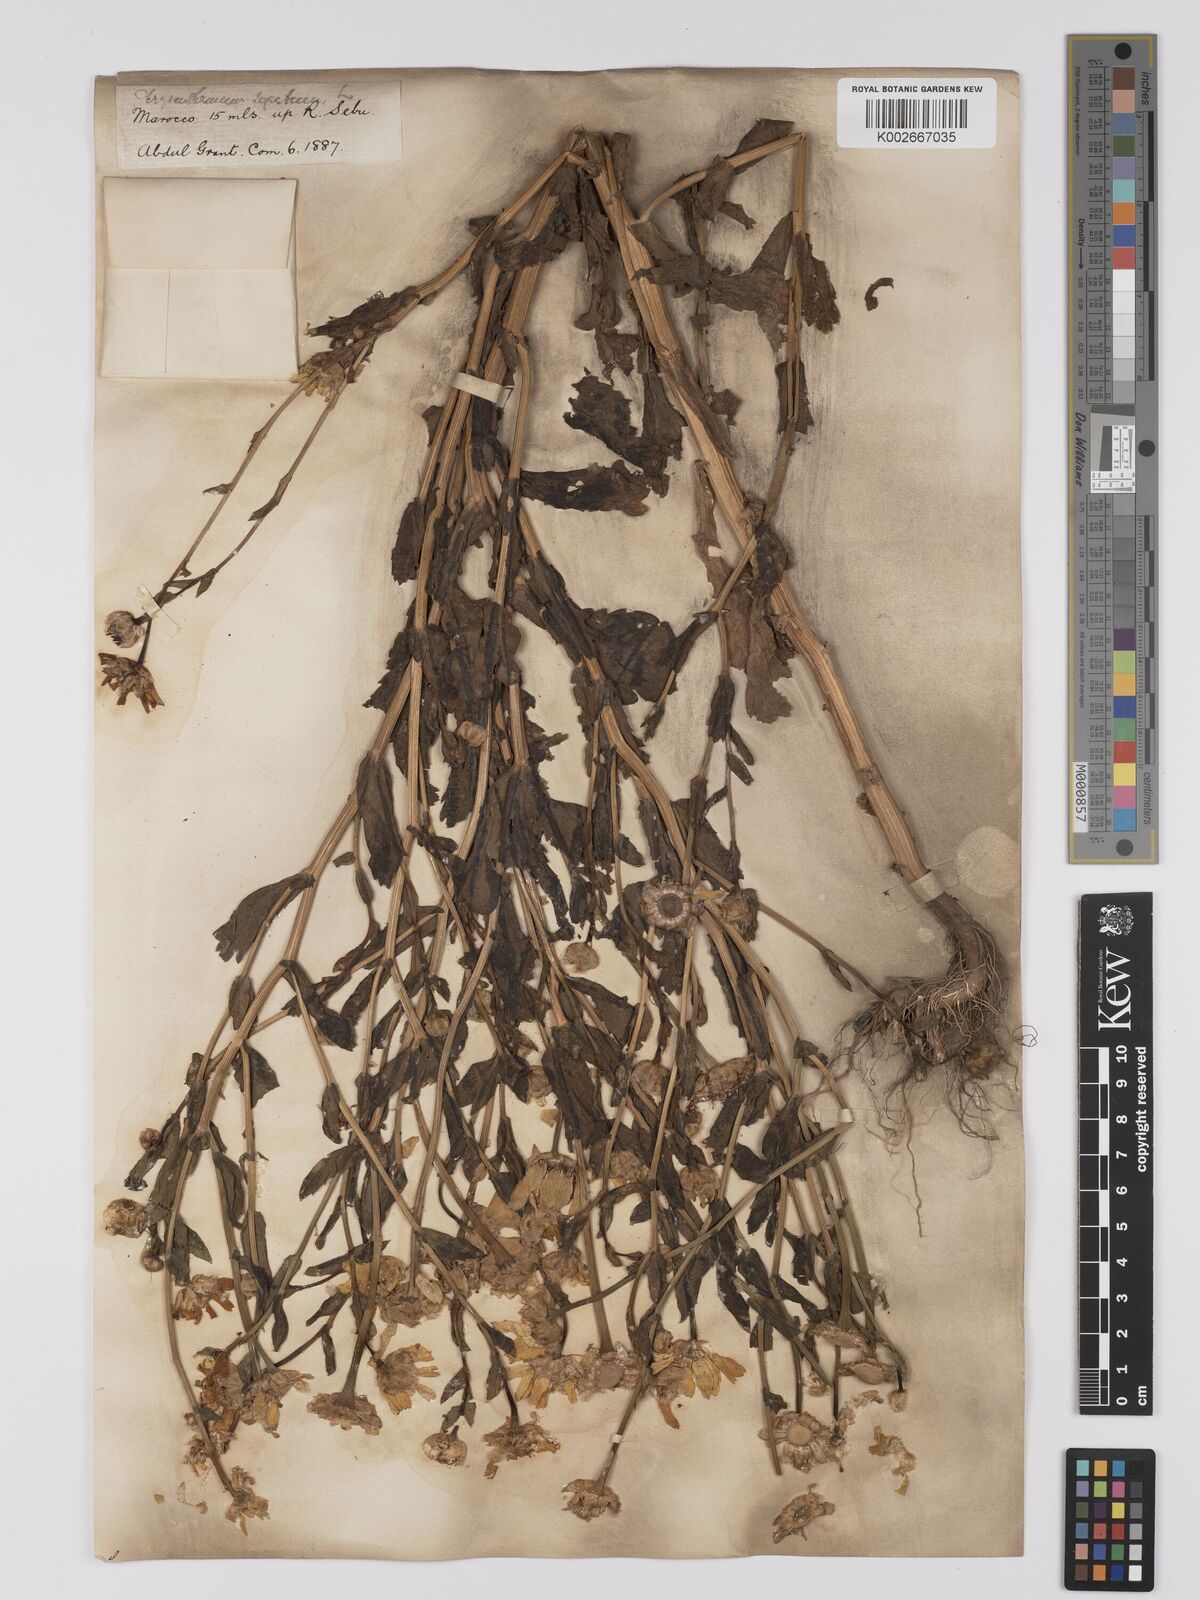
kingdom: Plantae
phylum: Tracheophyta
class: Magnoliopsida
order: Asterales
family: Asteraceae
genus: Glebionis
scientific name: Glebionis segetum
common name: Corndaisy
